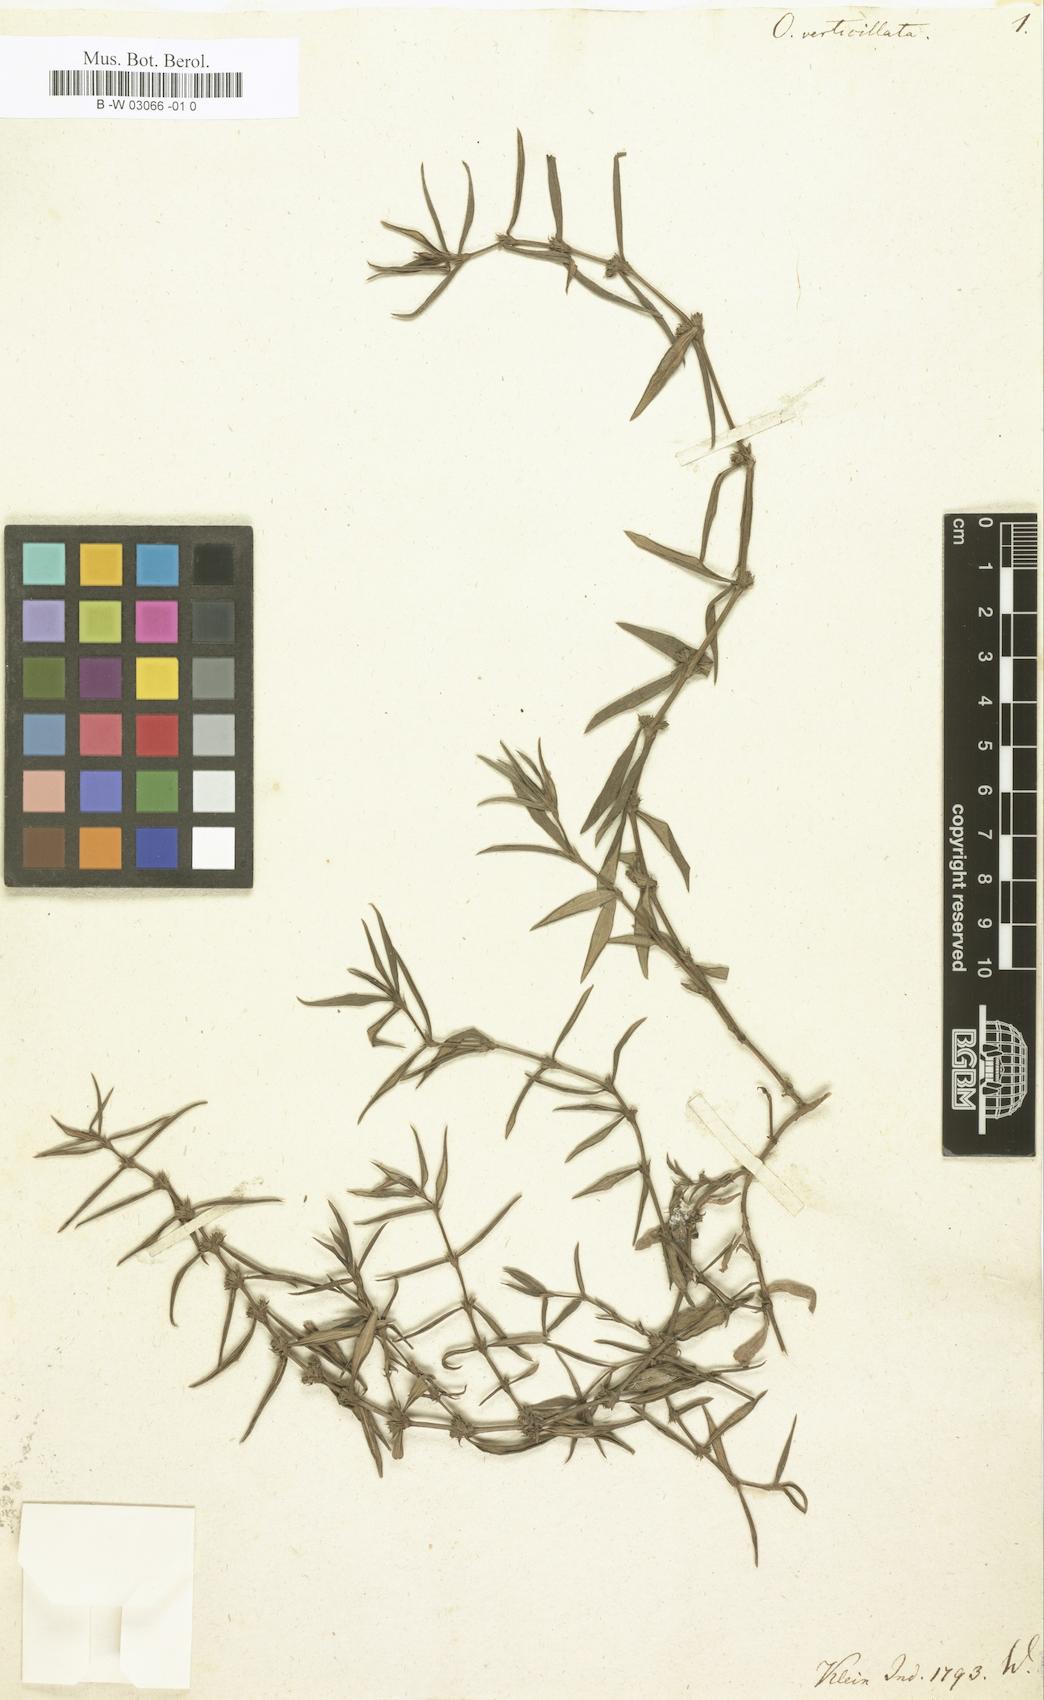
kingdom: Plantae
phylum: Tracheophyta
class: Magnoliopsida
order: Gentianales
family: Rubiaceae
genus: Oldenlandia
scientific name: Oldenlandia verticillata
